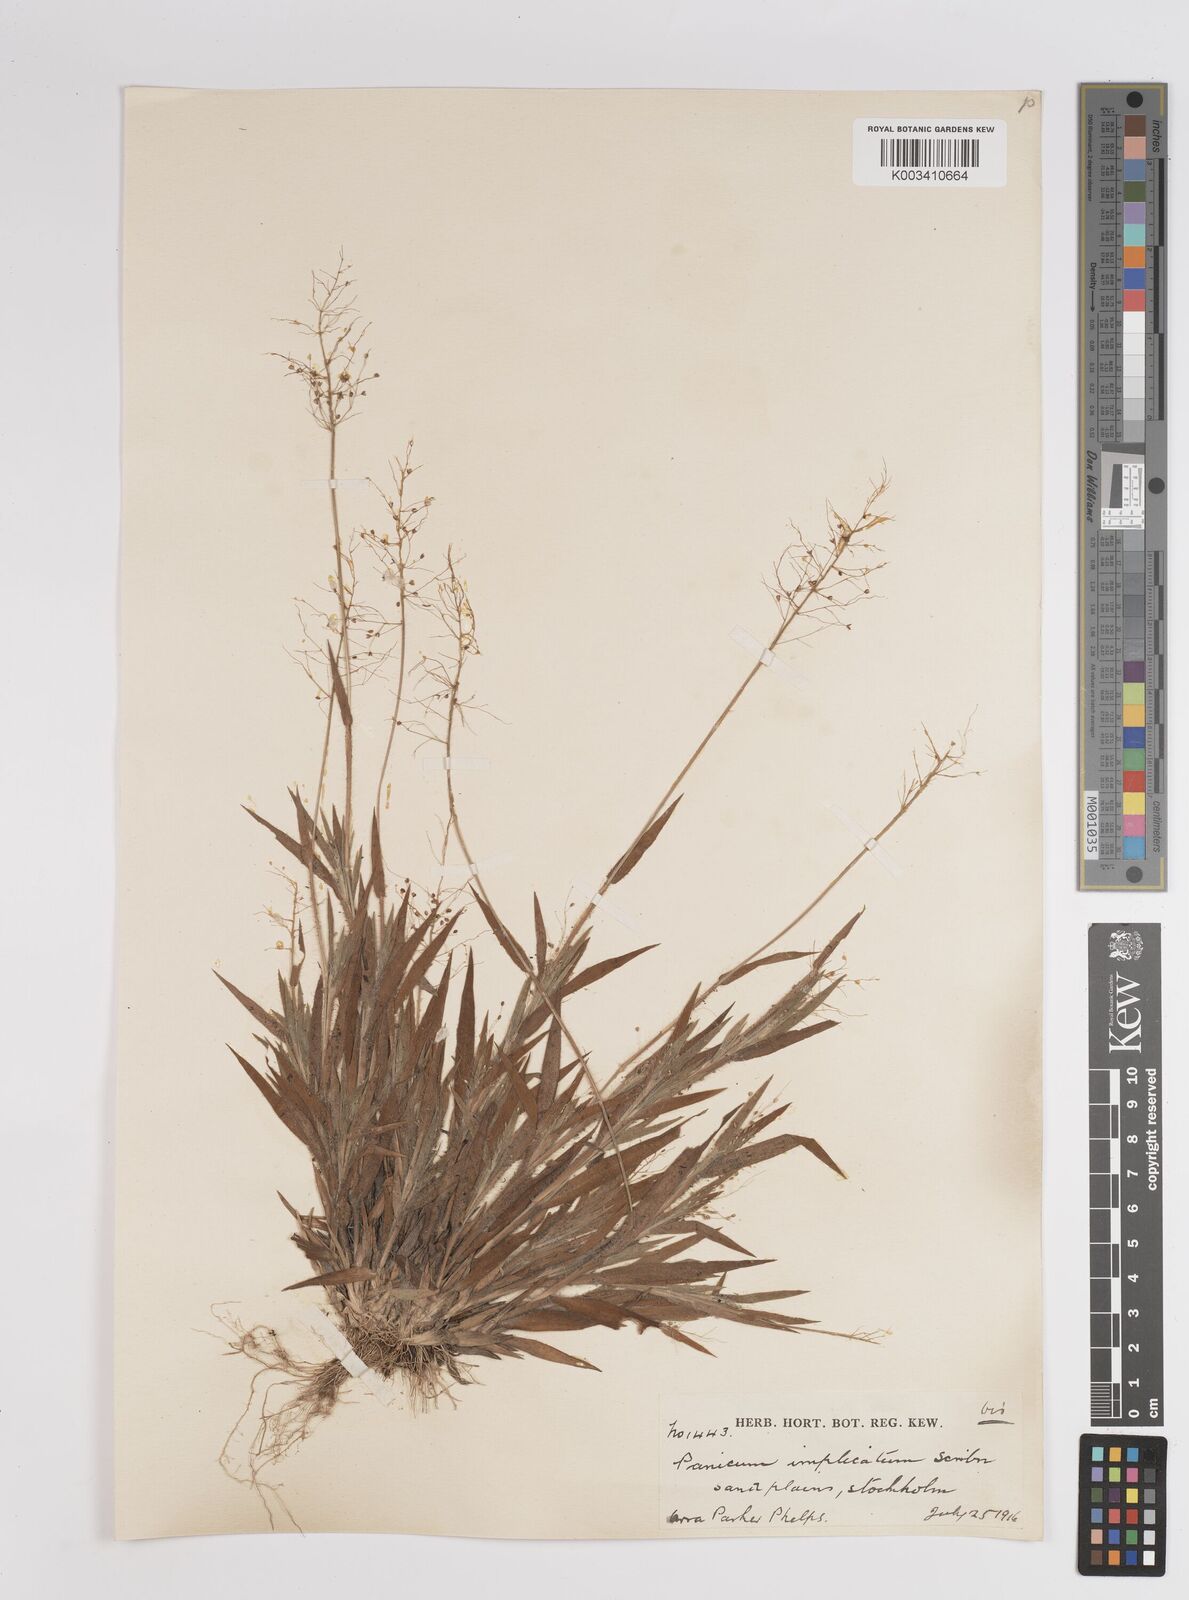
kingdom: Plantae
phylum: Tracheophyta
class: Liliopsida
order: Poales
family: Poaceae
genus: Dichanthelium
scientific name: Dichanthelium implicatum
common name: Slender-stemmed panicgrass
